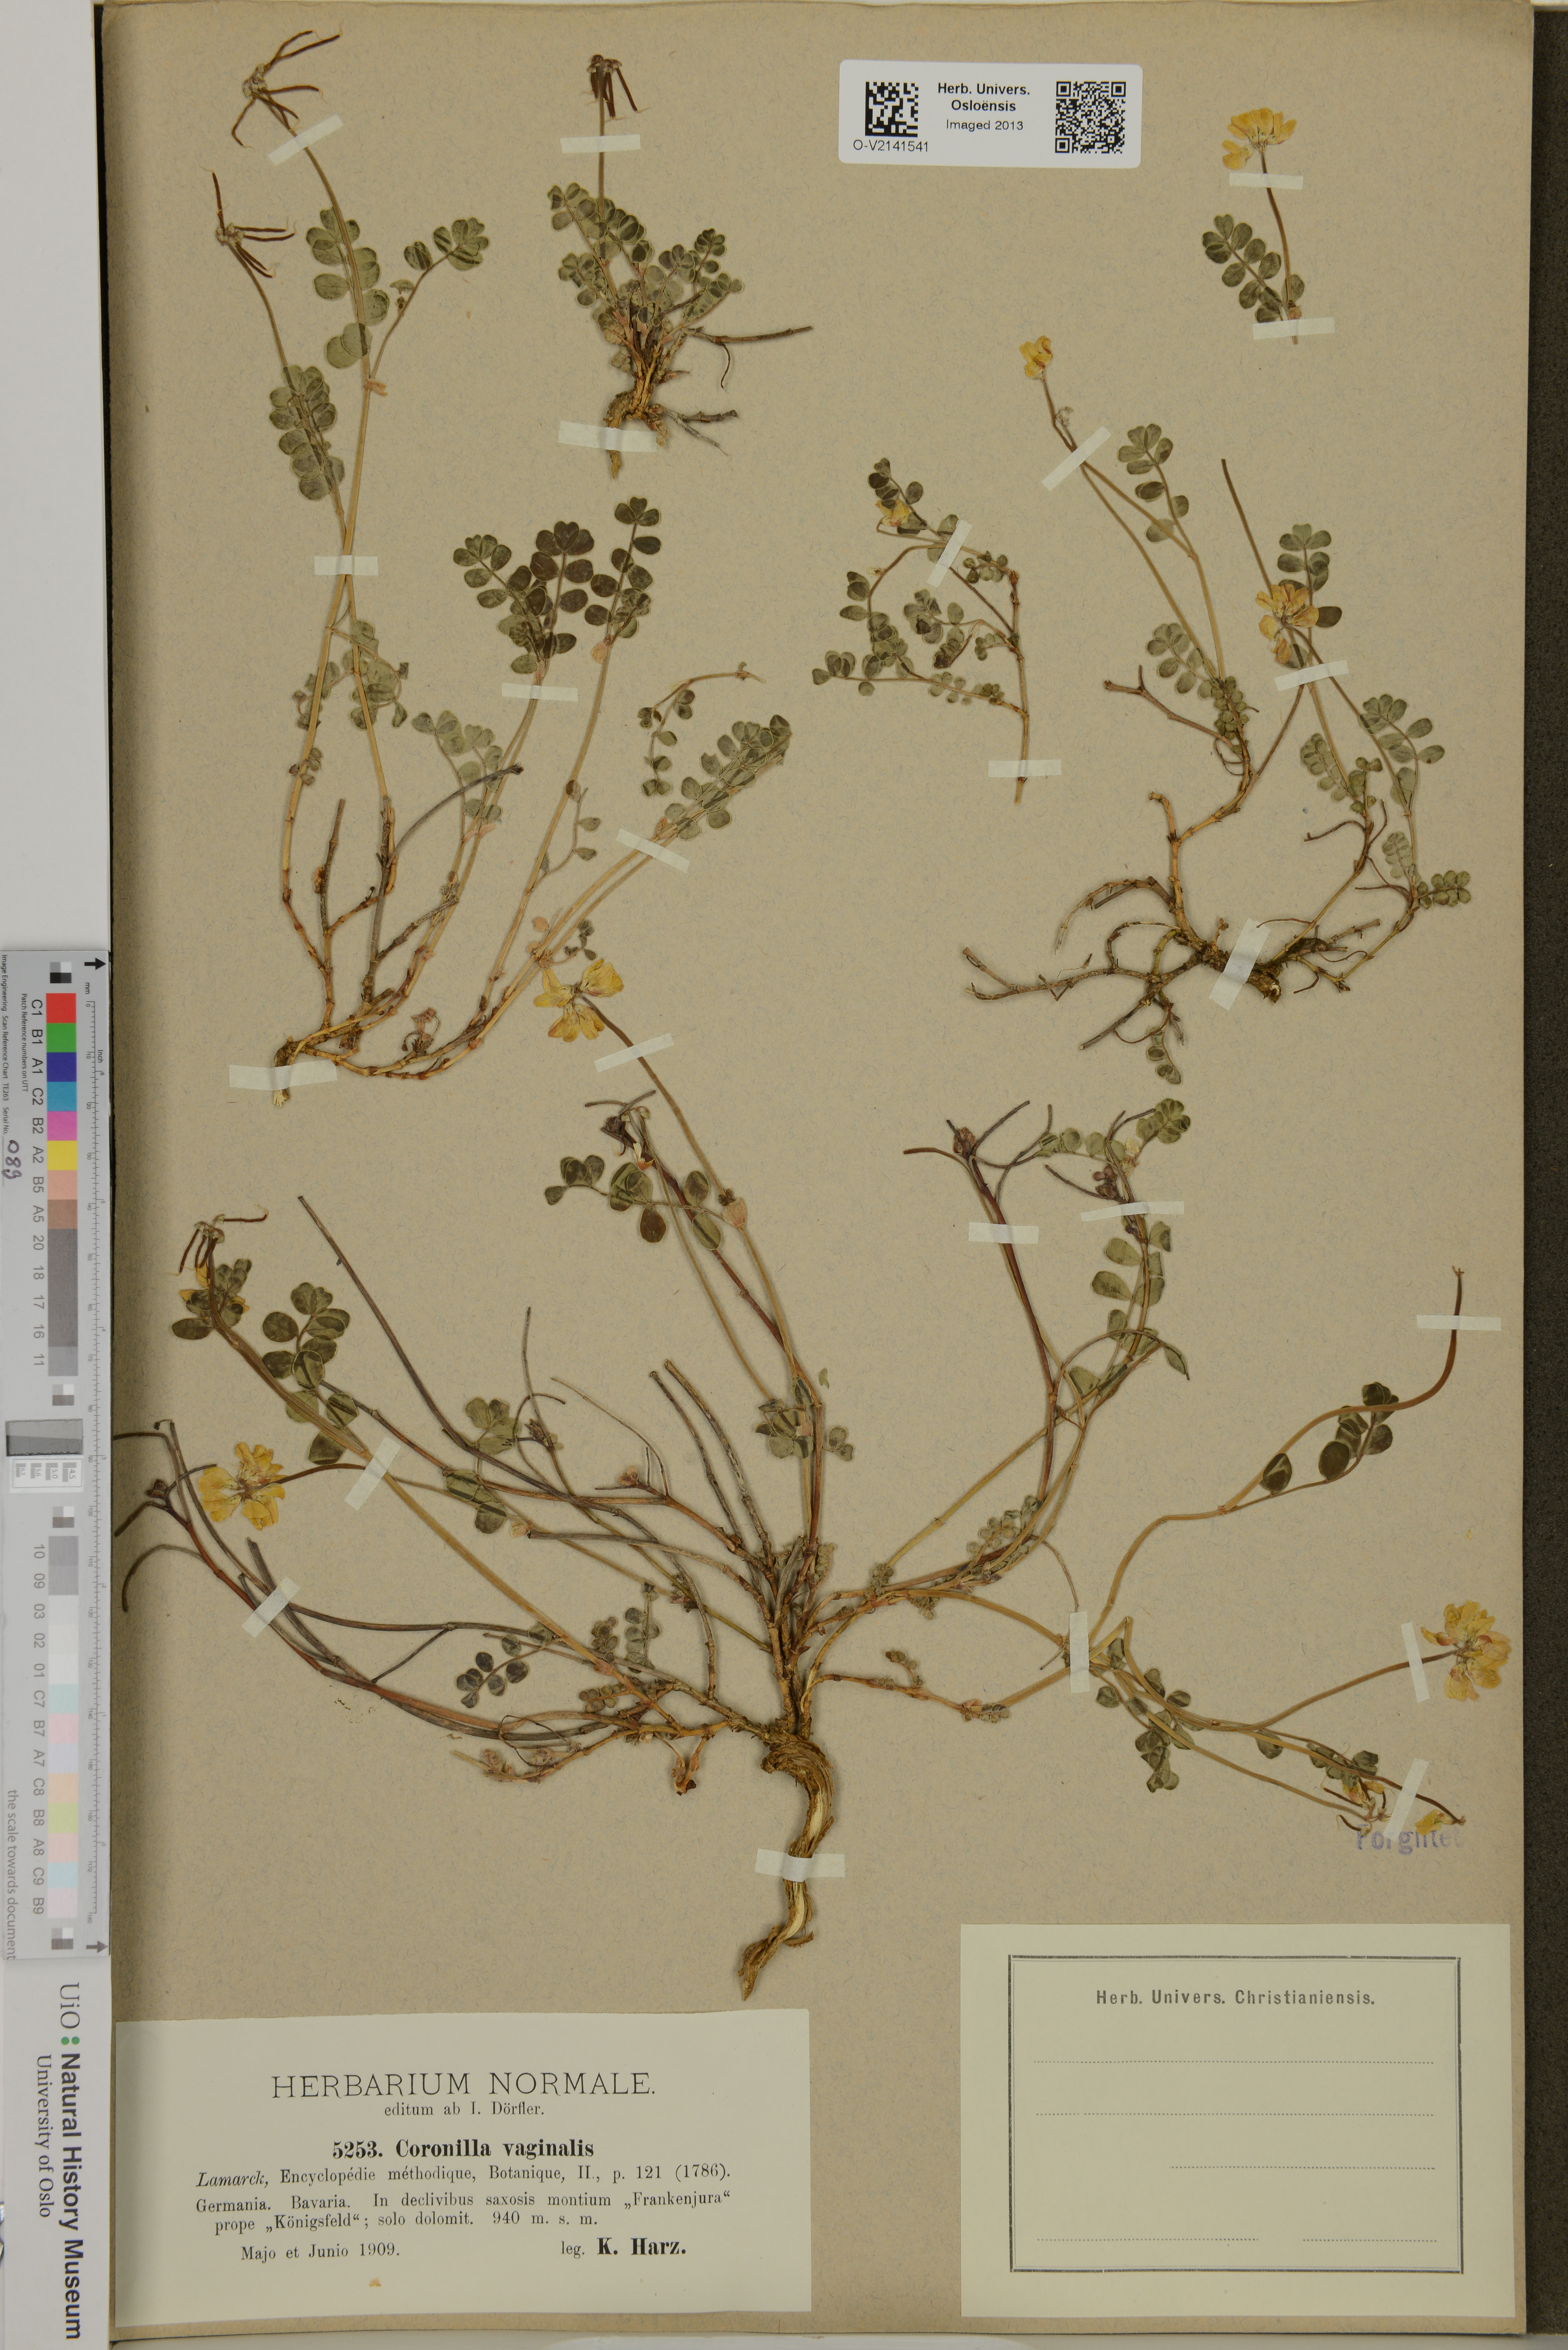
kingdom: Plantae
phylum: Tracheophyta
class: Magnoliopsida
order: Fabales
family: Fabaceae
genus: Coronilla
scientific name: Coronilla vaginalis
